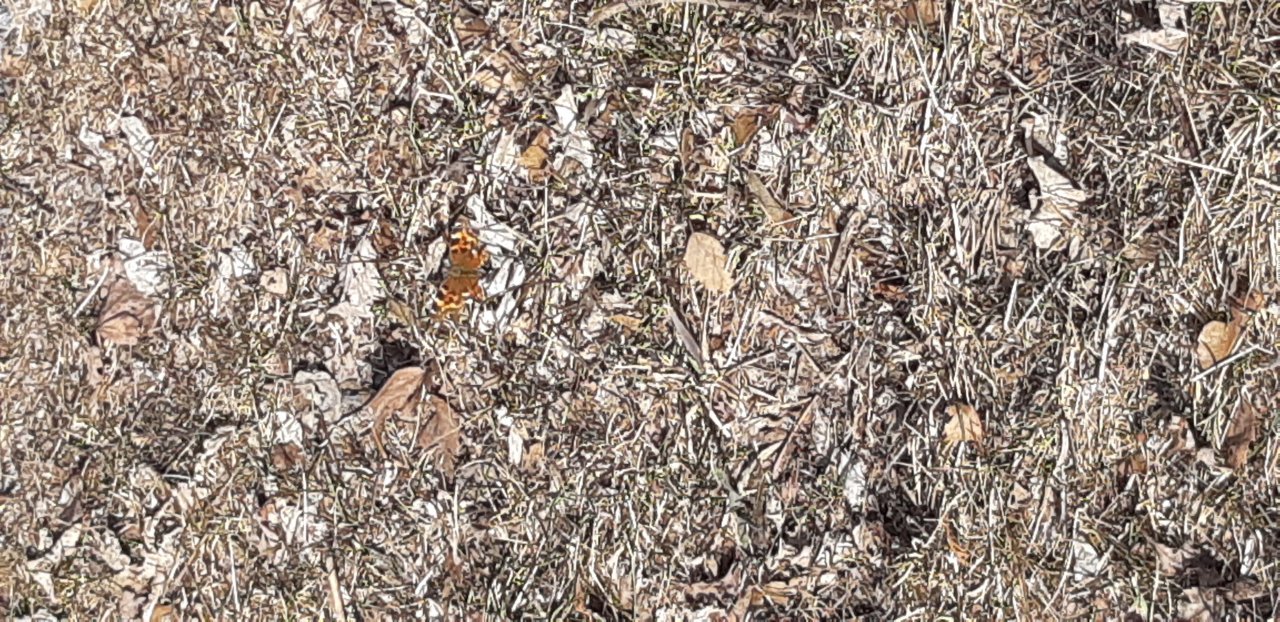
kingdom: Animalia
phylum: Arthropoda
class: Insecta
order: Lepidoptera
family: Nymphalidae
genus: Polygonia
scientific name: Polygonia vaualbum
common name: Compton Tortoiseshell
